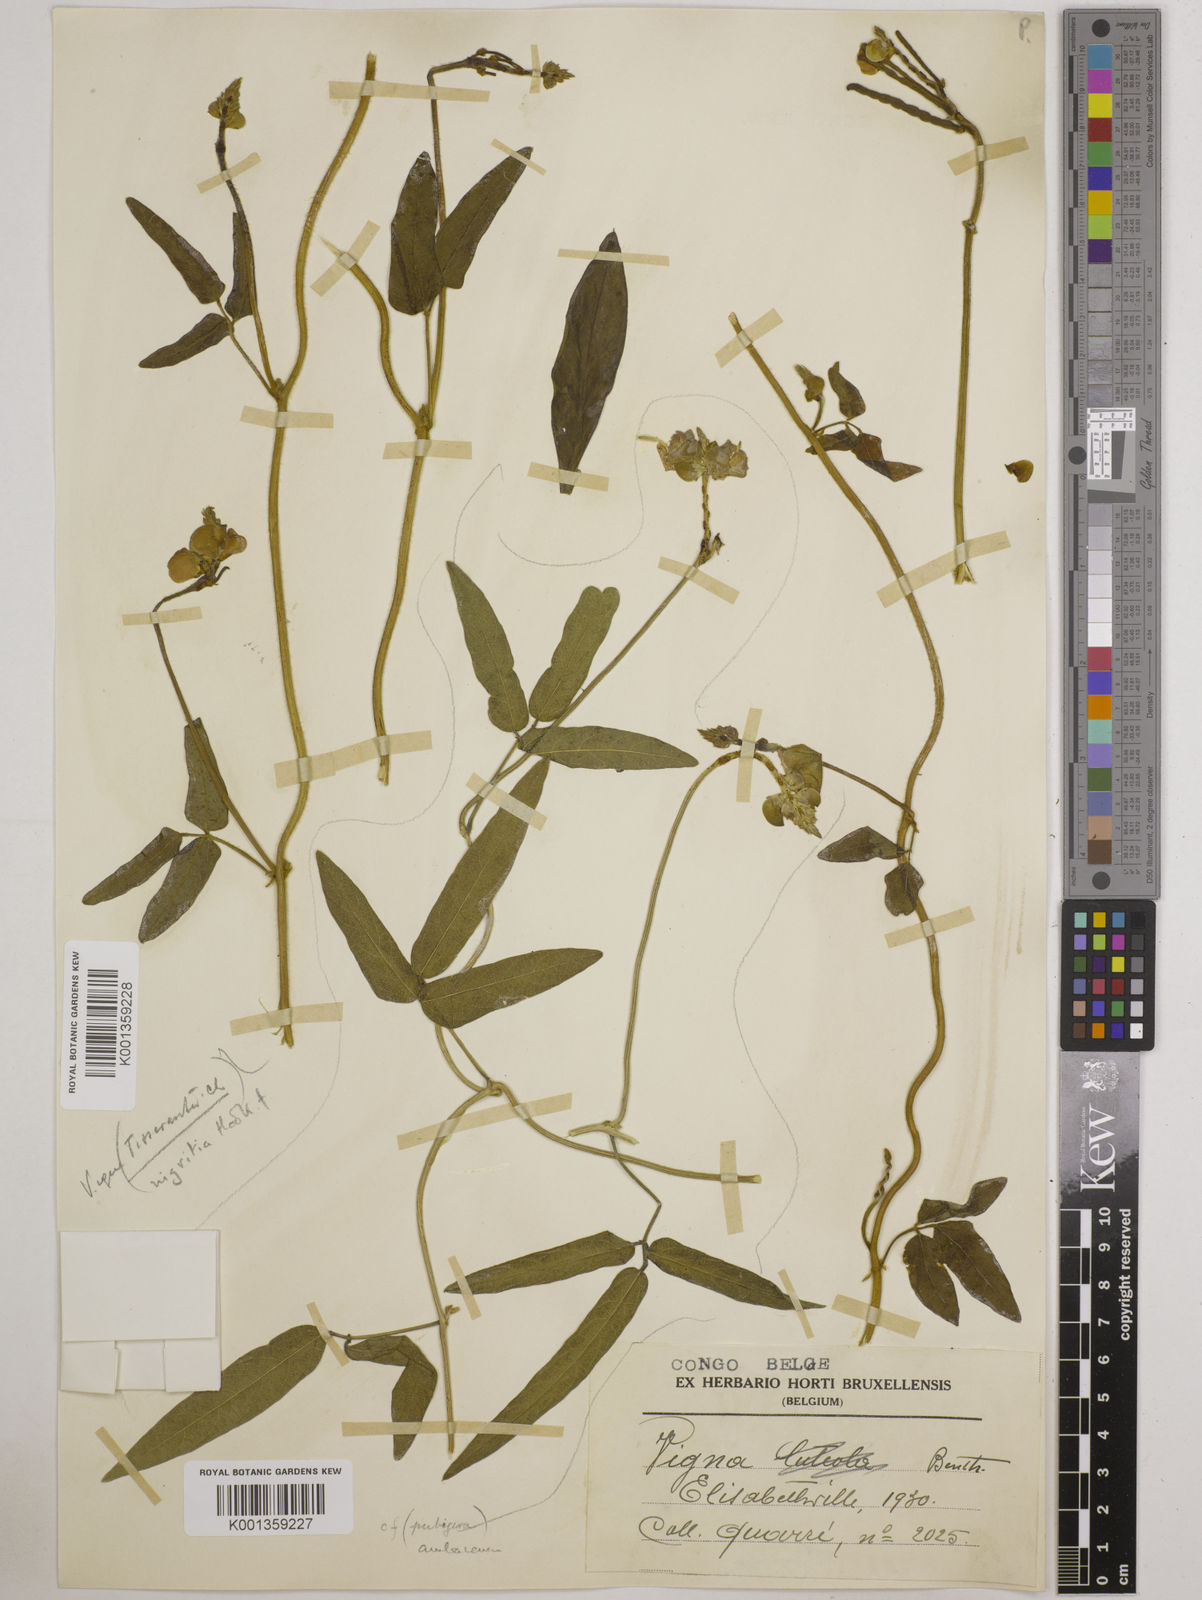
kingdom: Plantae
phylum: Tracheophyta
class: Magnoliopsida
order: Fabales
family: Fabaceae
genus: Vigna
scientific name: Vigna nigritia
